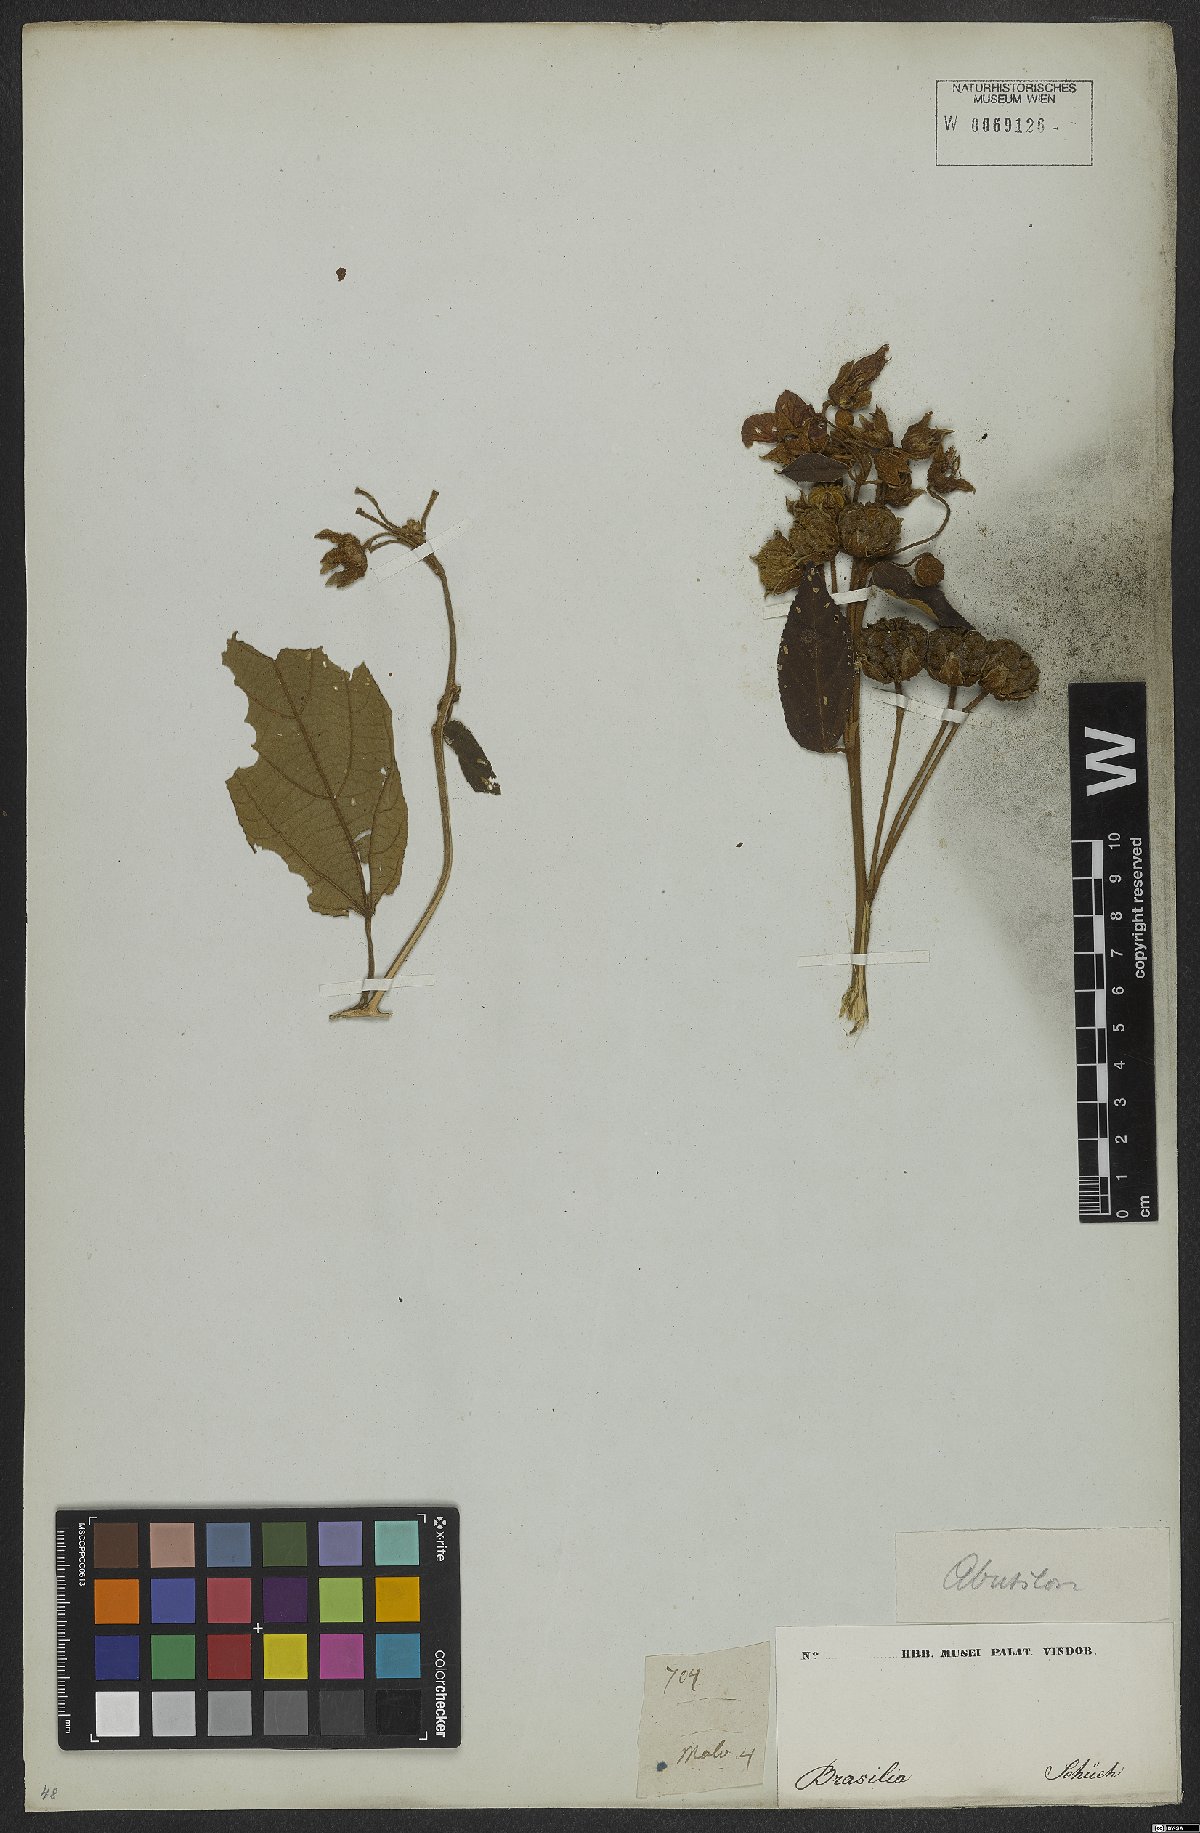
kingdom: Plantae
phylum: Tracheophyta
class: Magnoliopsida
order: Malvales
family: Malvaceae
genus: Callianthe
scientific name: Callianthe rufinerva
